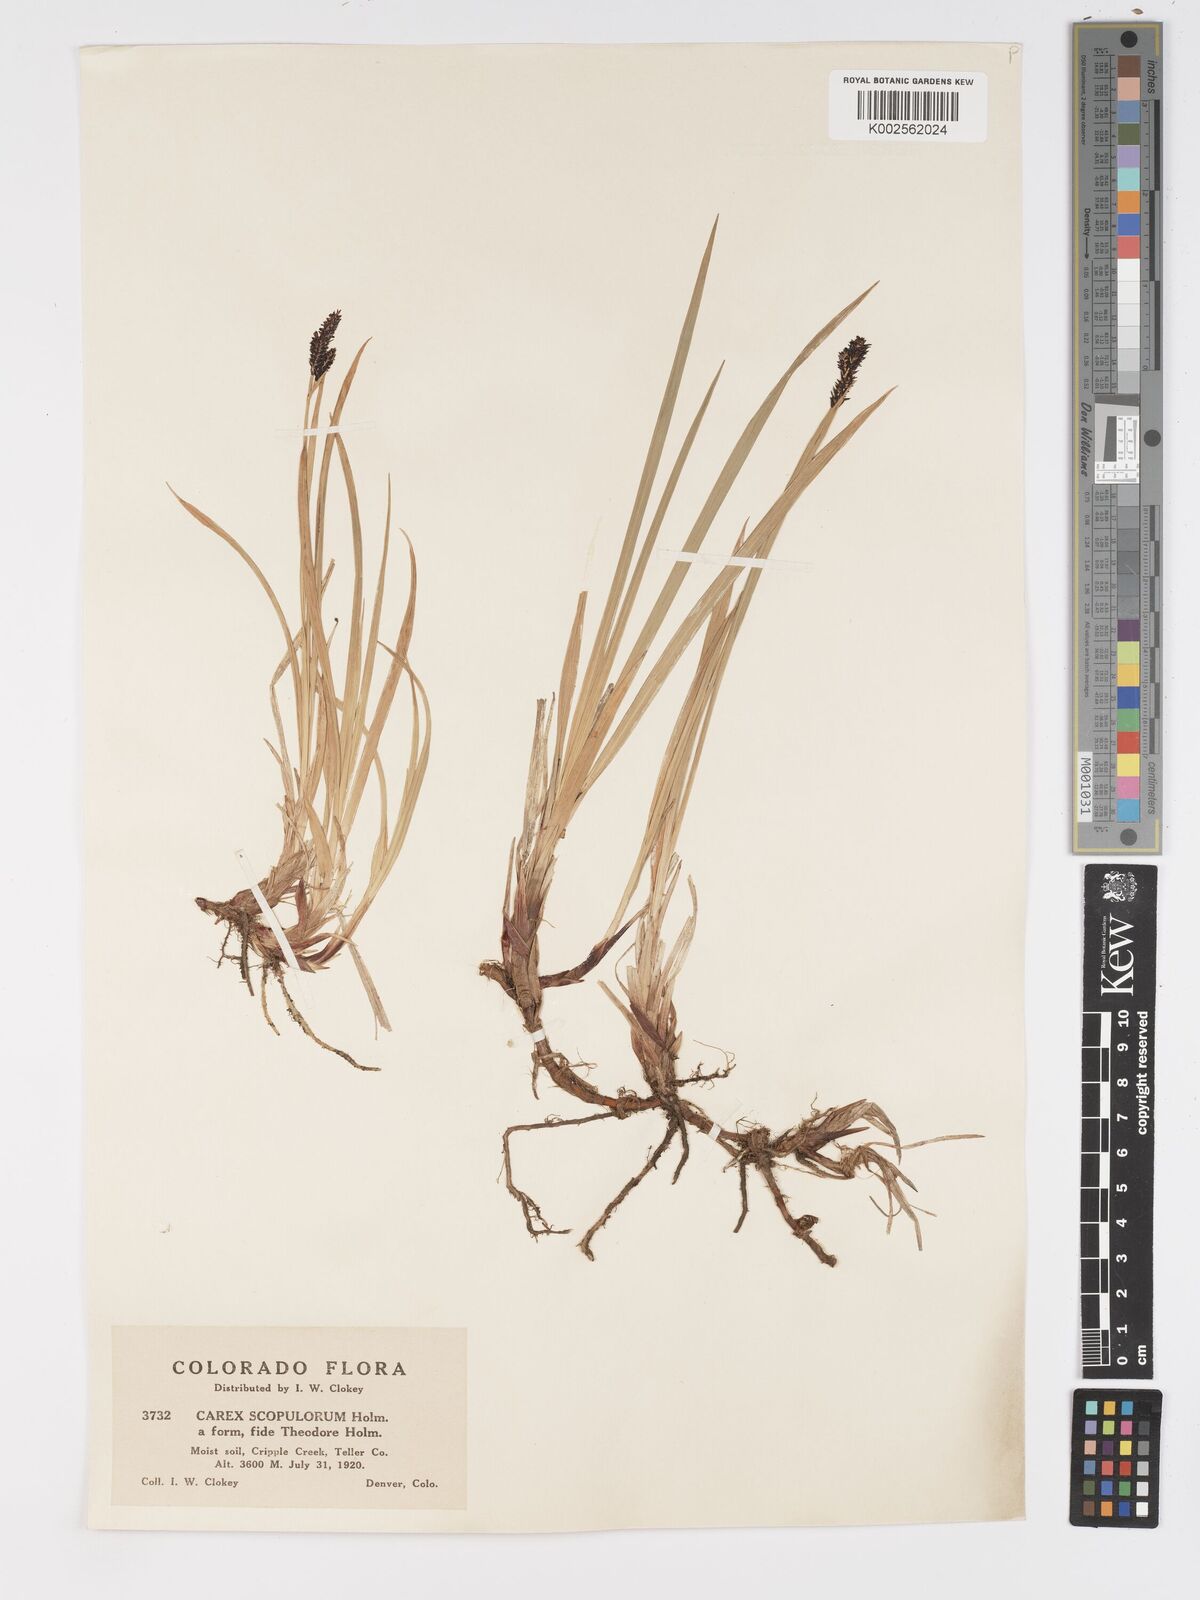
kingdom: Plantae
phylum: Tracheophyta
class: Liliopsida
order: Poales
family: Cyperaceae
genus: Carex
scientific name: Carex scopulorum
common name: Holm's rocky mountain sedge
